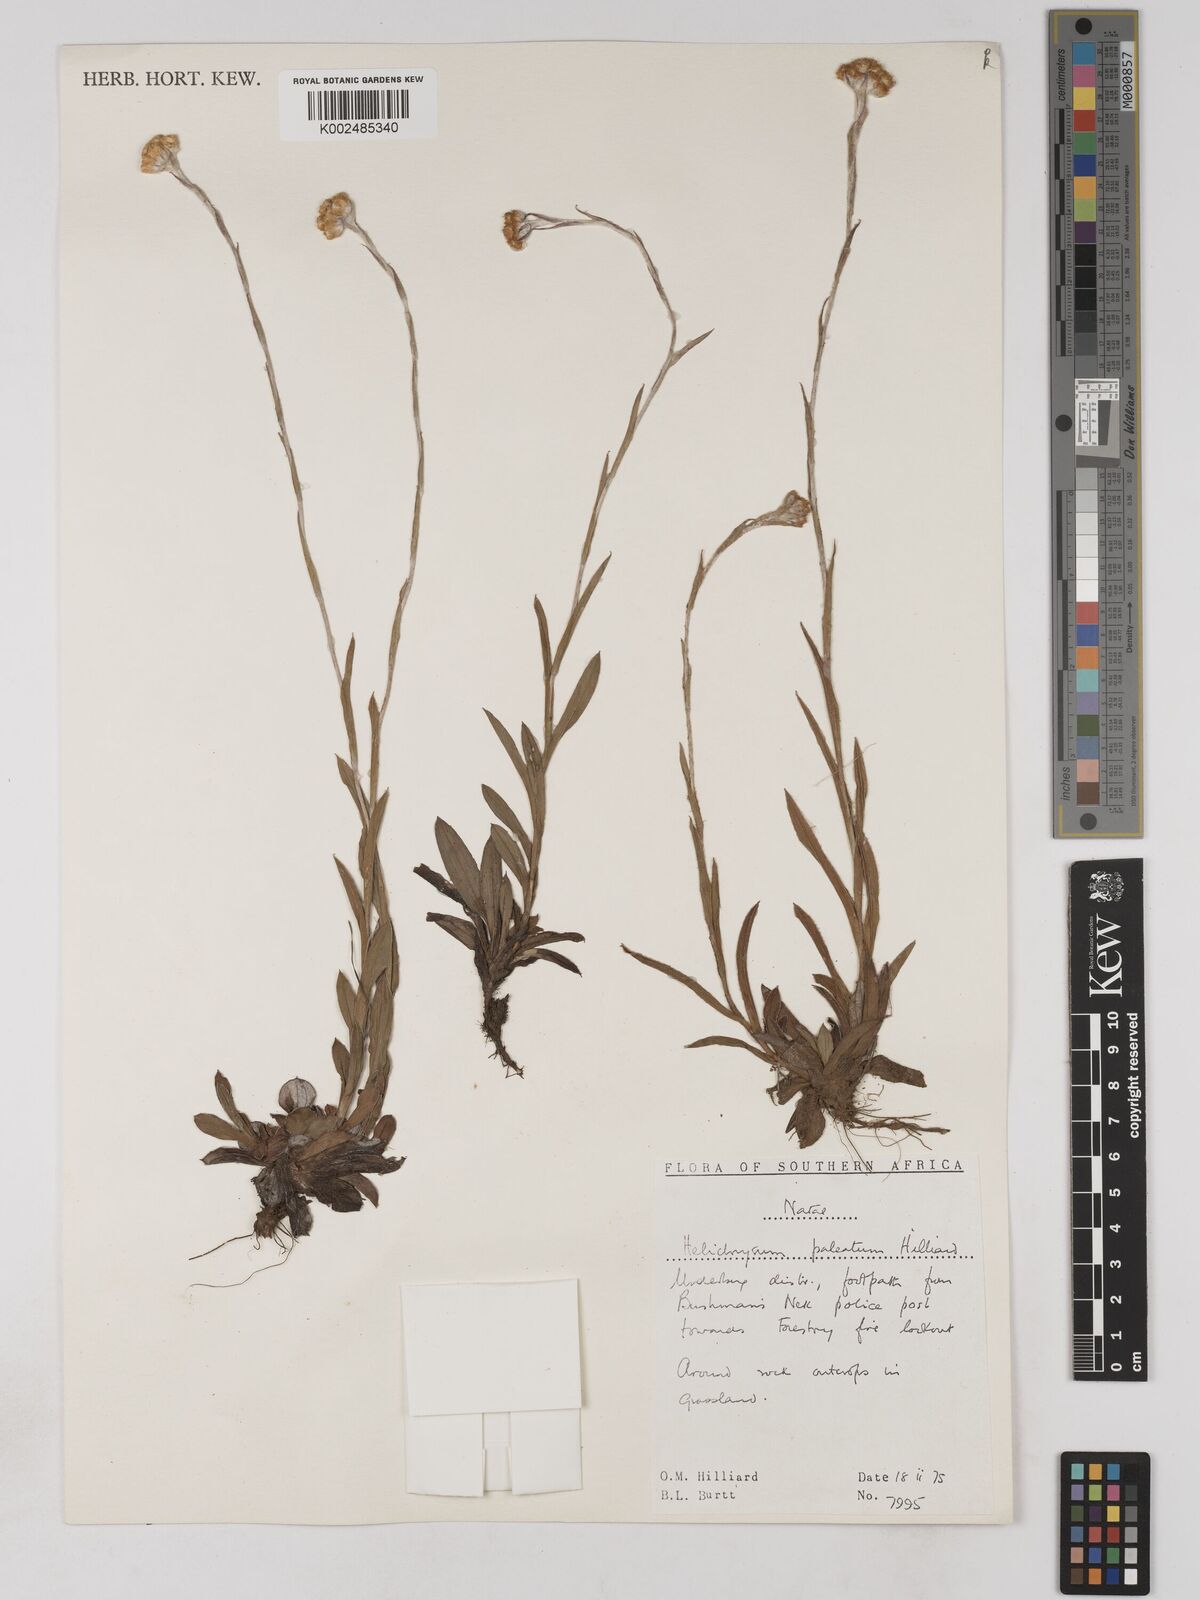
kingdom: Plantae
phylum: Tracheophyta
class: Magnoliopsida
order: Asterales
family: Asteraceae
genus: Helichrysum
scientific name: Helichrysum paleatum
